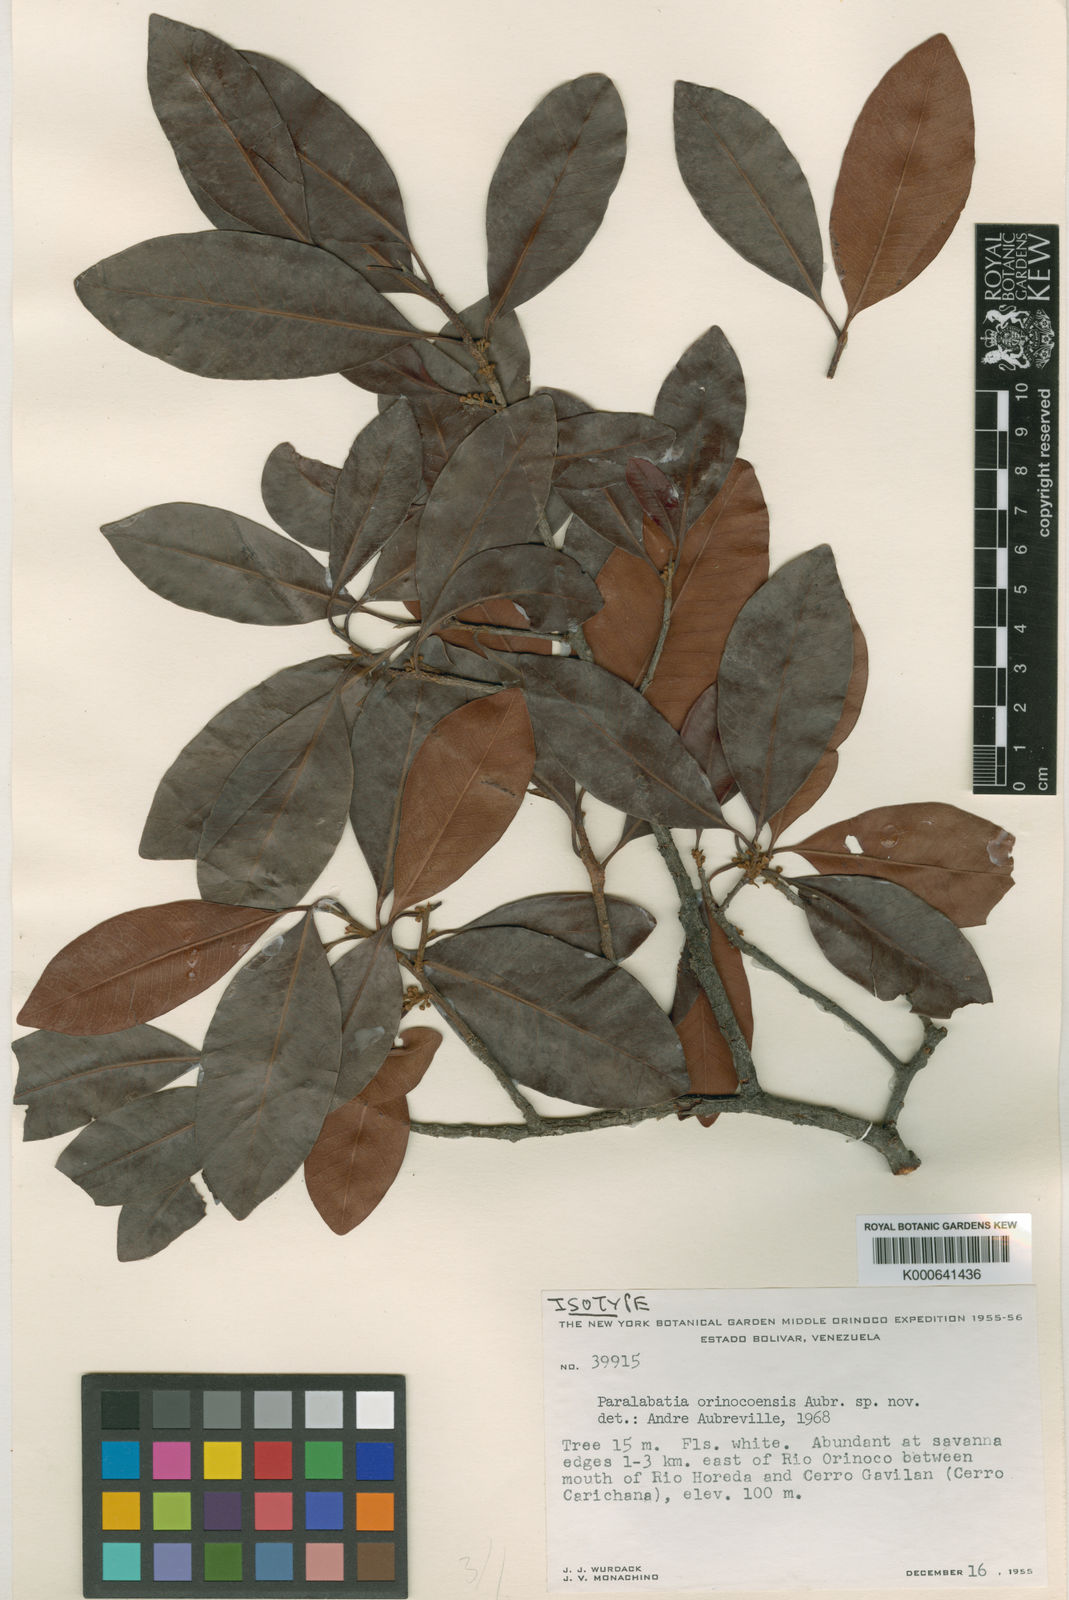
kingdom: Plantae
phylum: Tracheophyta
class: Magnoliopsida
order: Ericales
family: Sapotaceae
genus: Pouteria
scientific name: Pouteria
